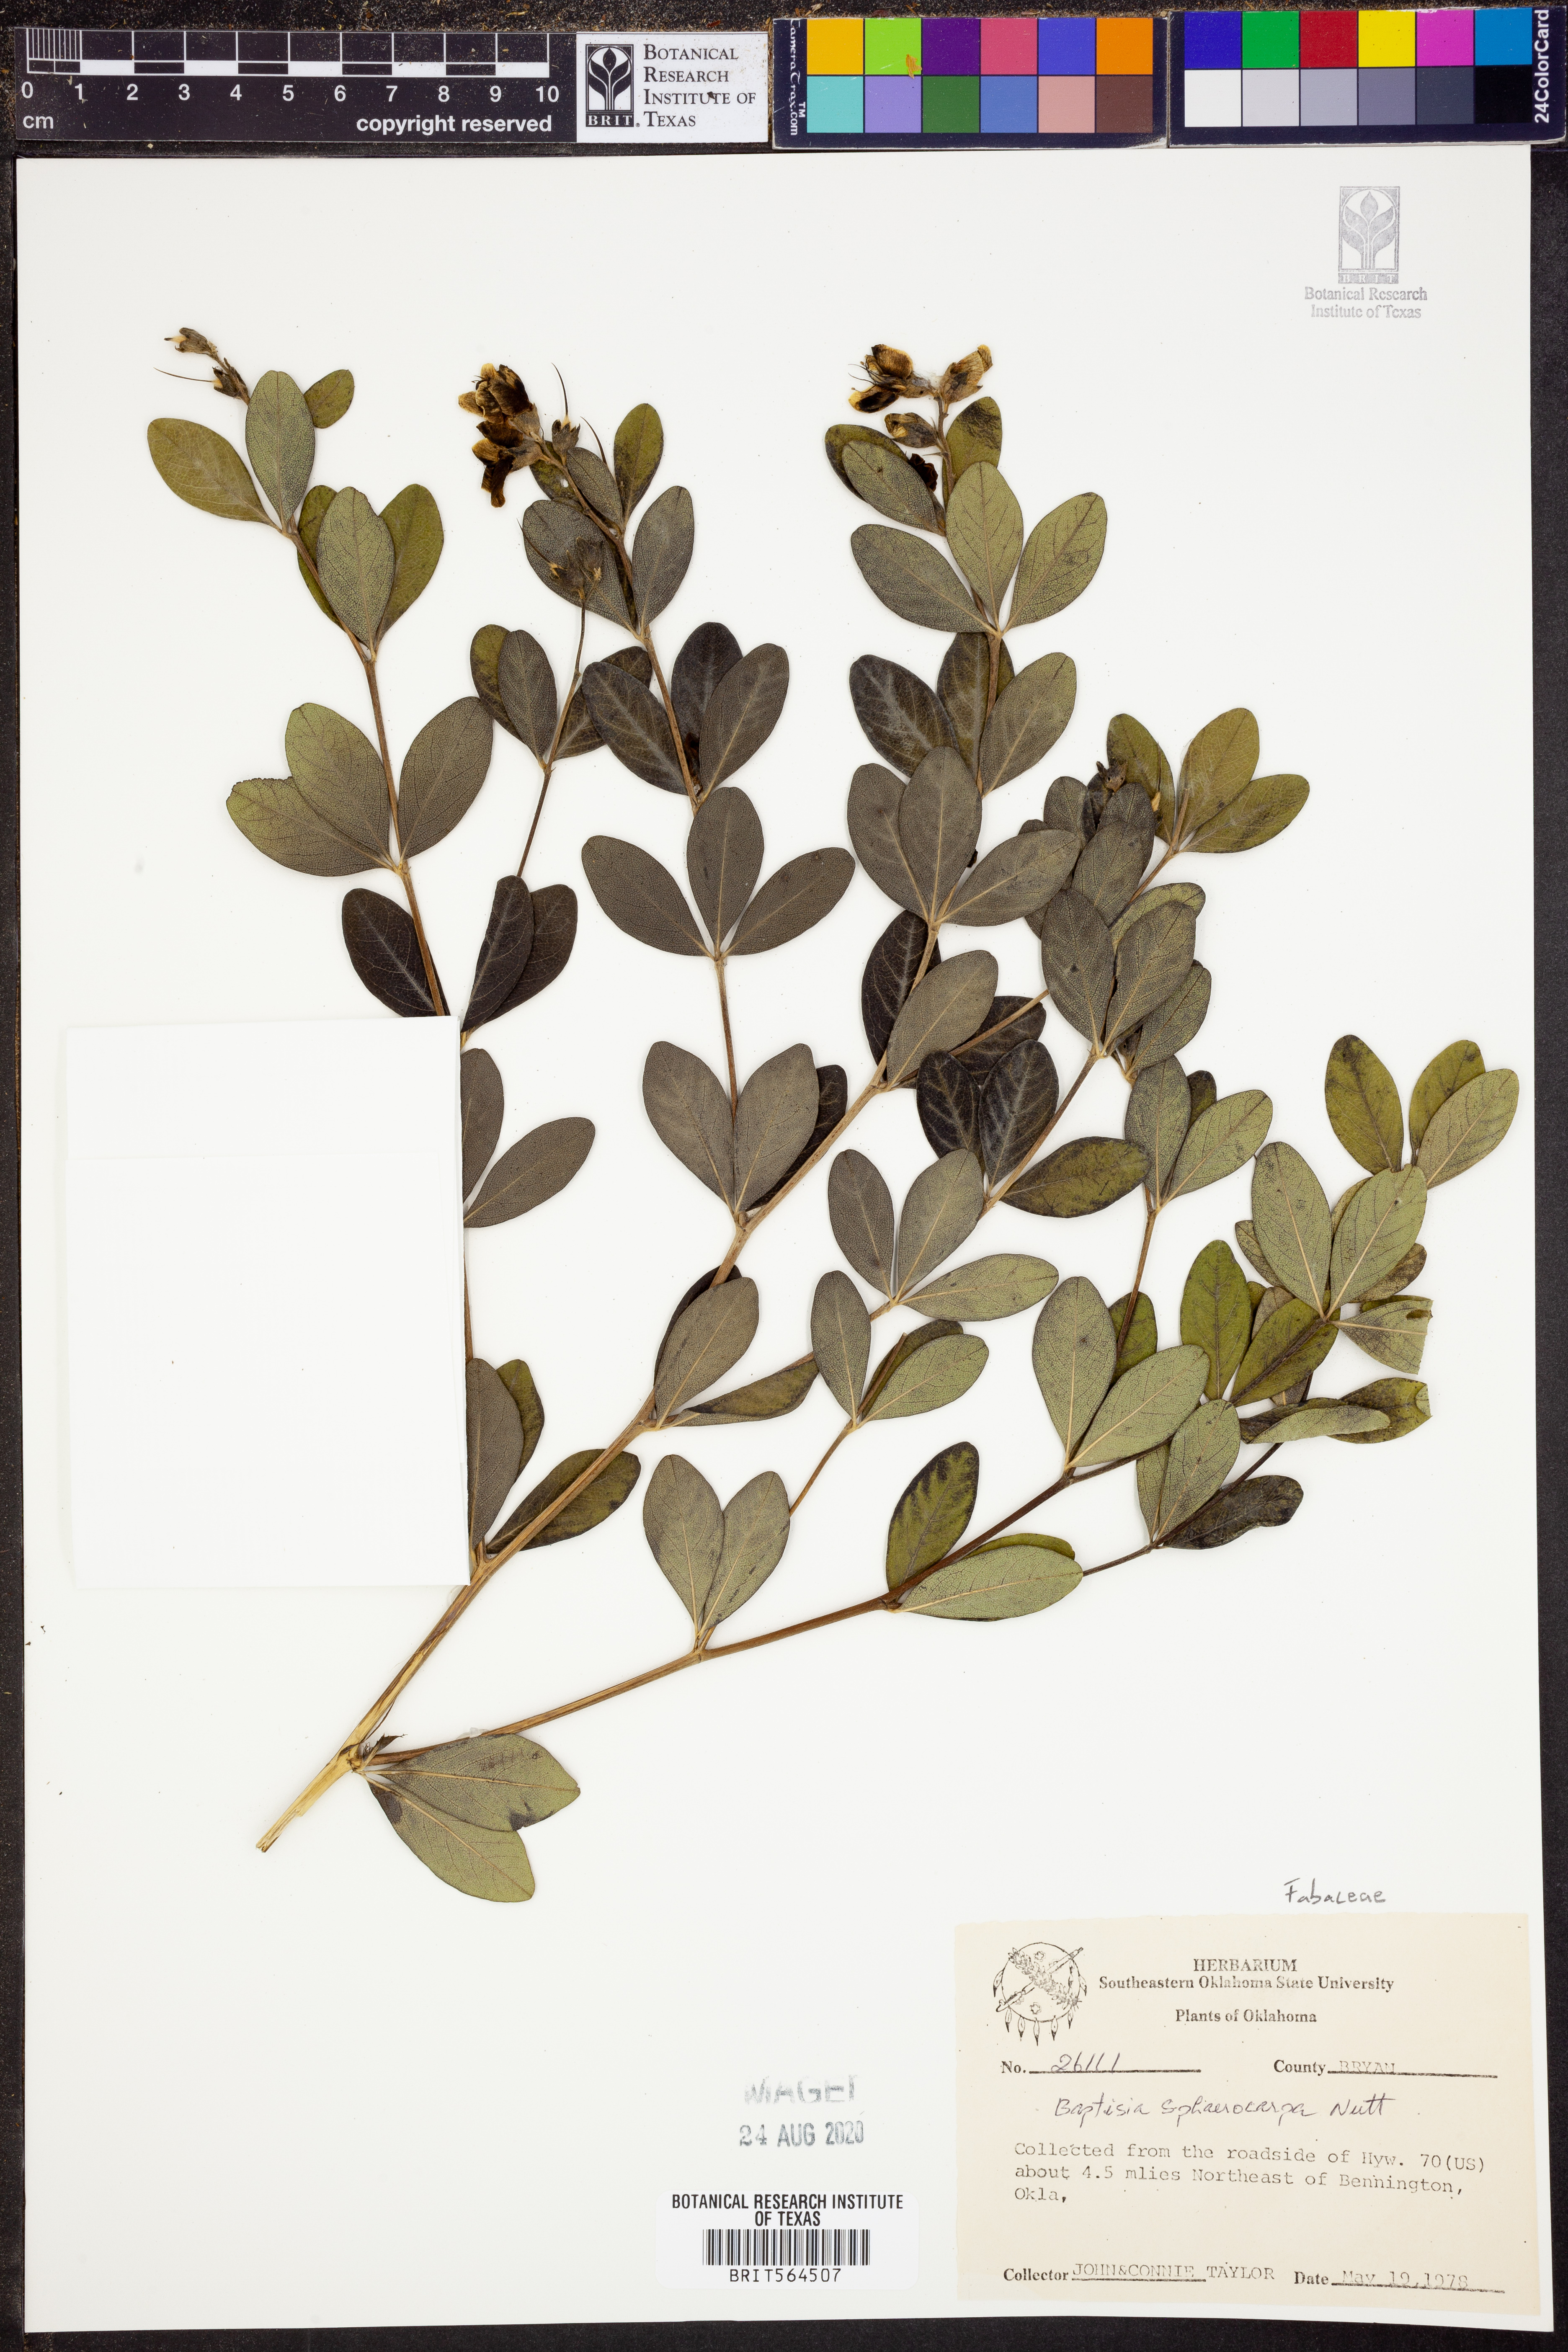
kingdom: Plantae
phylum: Tracheophyta
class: Magnoliopsida
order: Fabales
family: Fabaceae
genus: Baptisia
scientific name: Baptisia sphaerocarpa
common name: Round wild indigo
